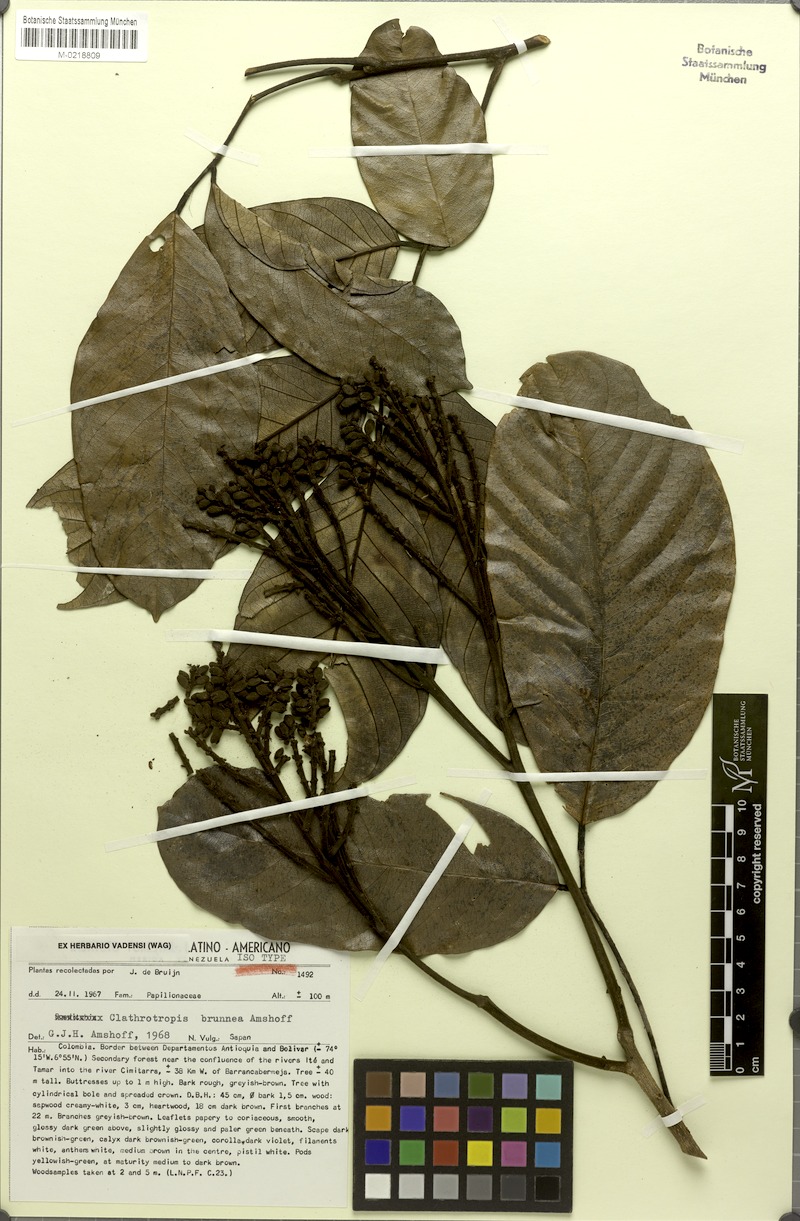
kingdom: Plantae
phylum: Tracheophyta
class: Magnoliopsida
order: Fabales
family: Fabaceae
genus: Clathrotropis
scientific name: Clathrotropis brunnea
